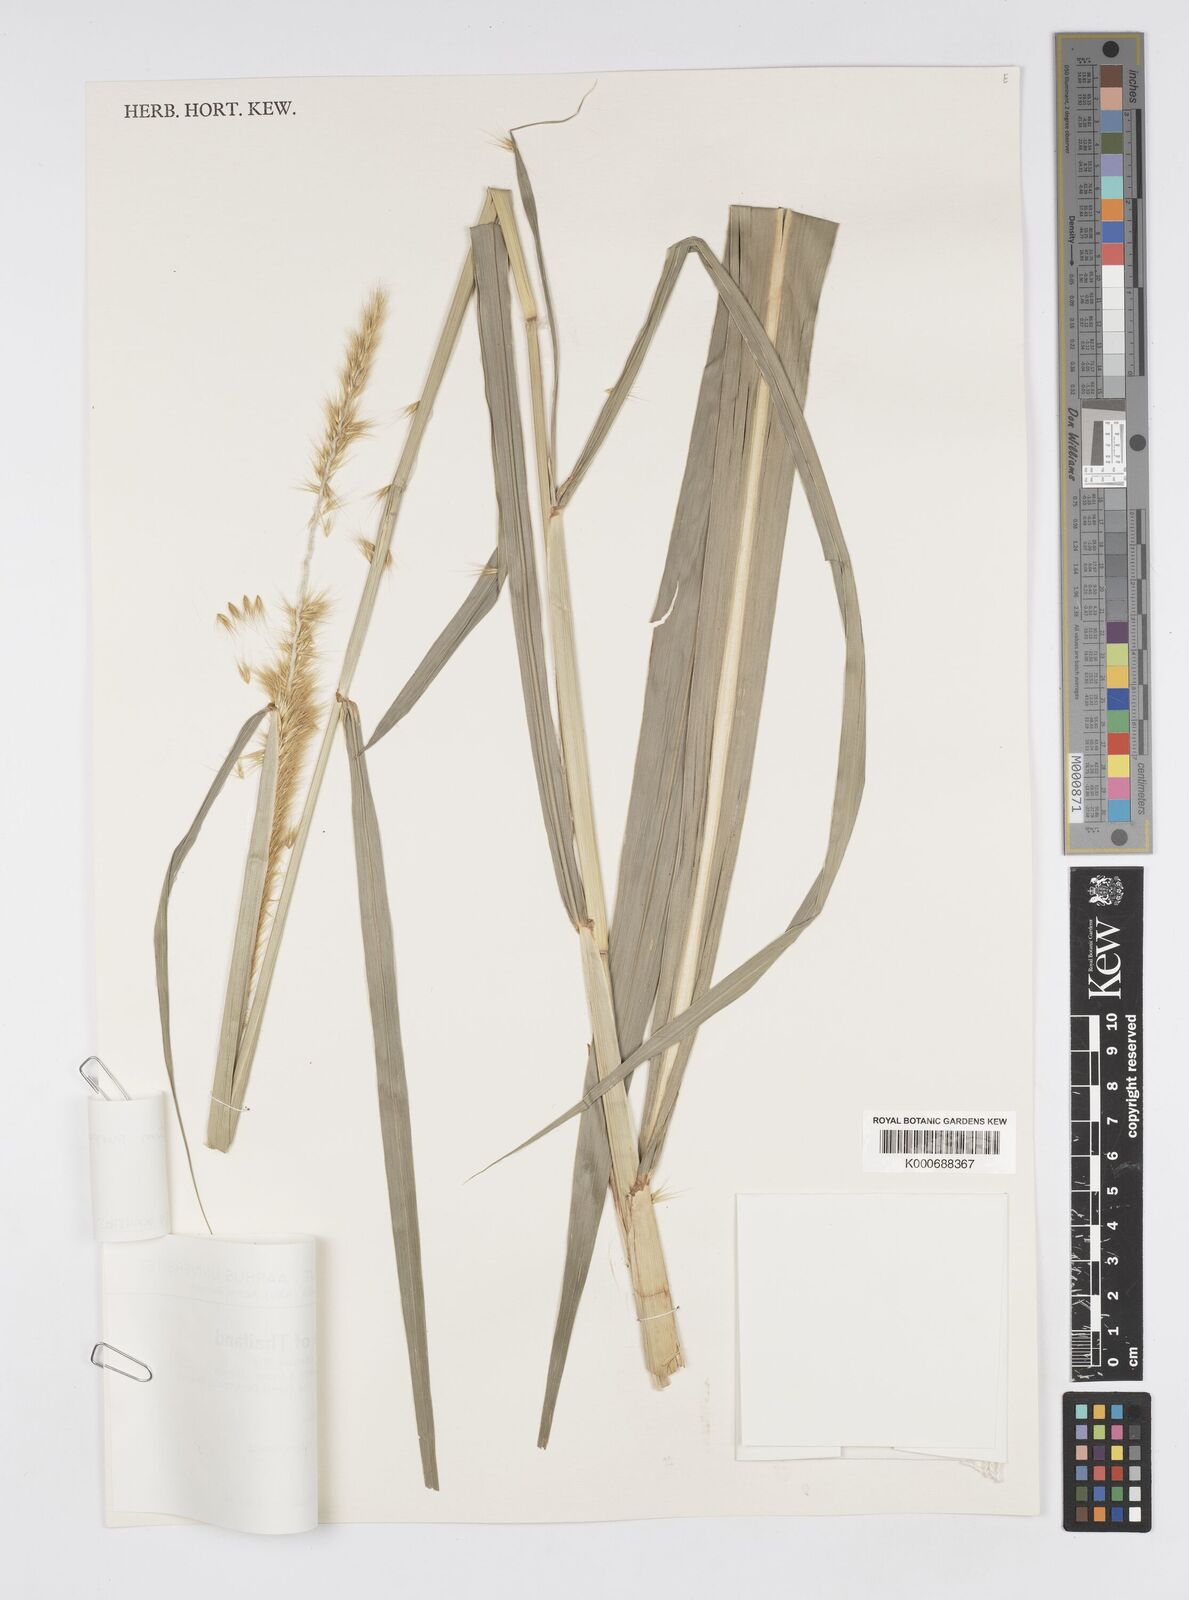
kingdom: Plantae
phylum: Tracheophyta
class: Liliopsida
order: Poales
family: Poaceae
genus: Cenchrus
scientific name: Cenchrus Pennisetum spec
